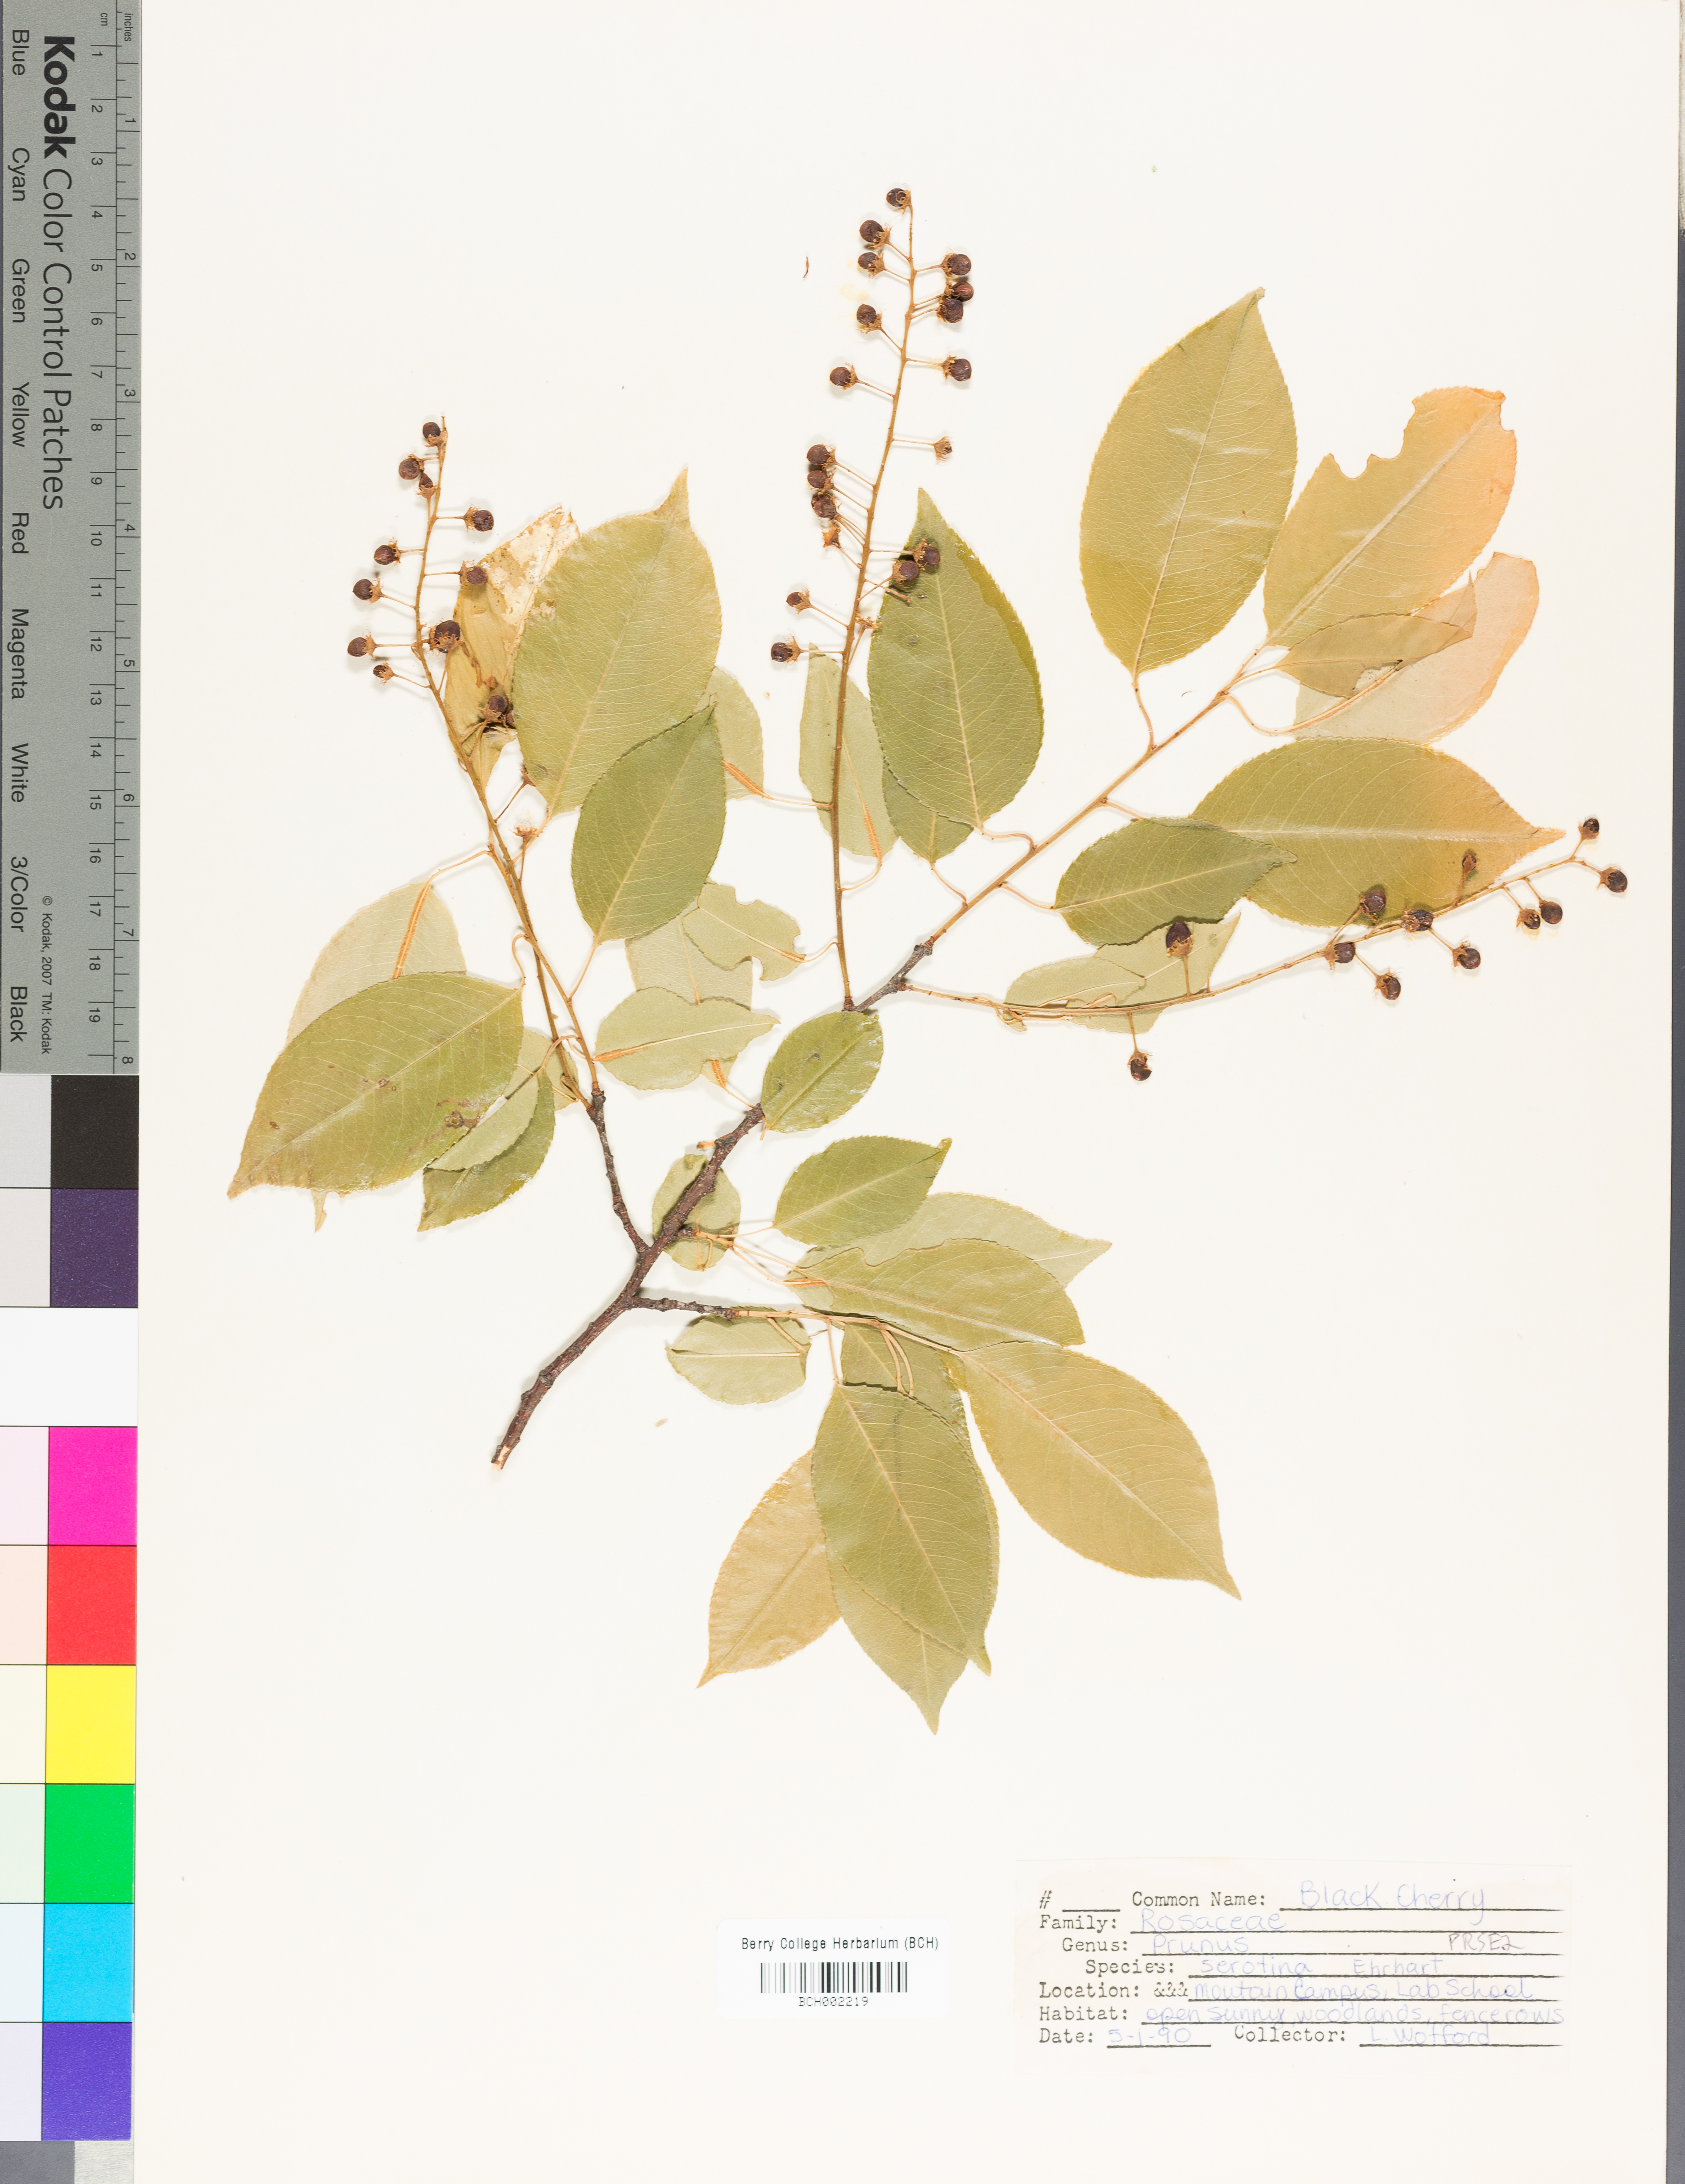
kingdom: Plantae
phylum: Tracheophyta
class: Magnoliopsida
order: Rosales
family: Rosaceae
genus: Prunus
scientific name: Prunus serotina
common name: Black cherry
